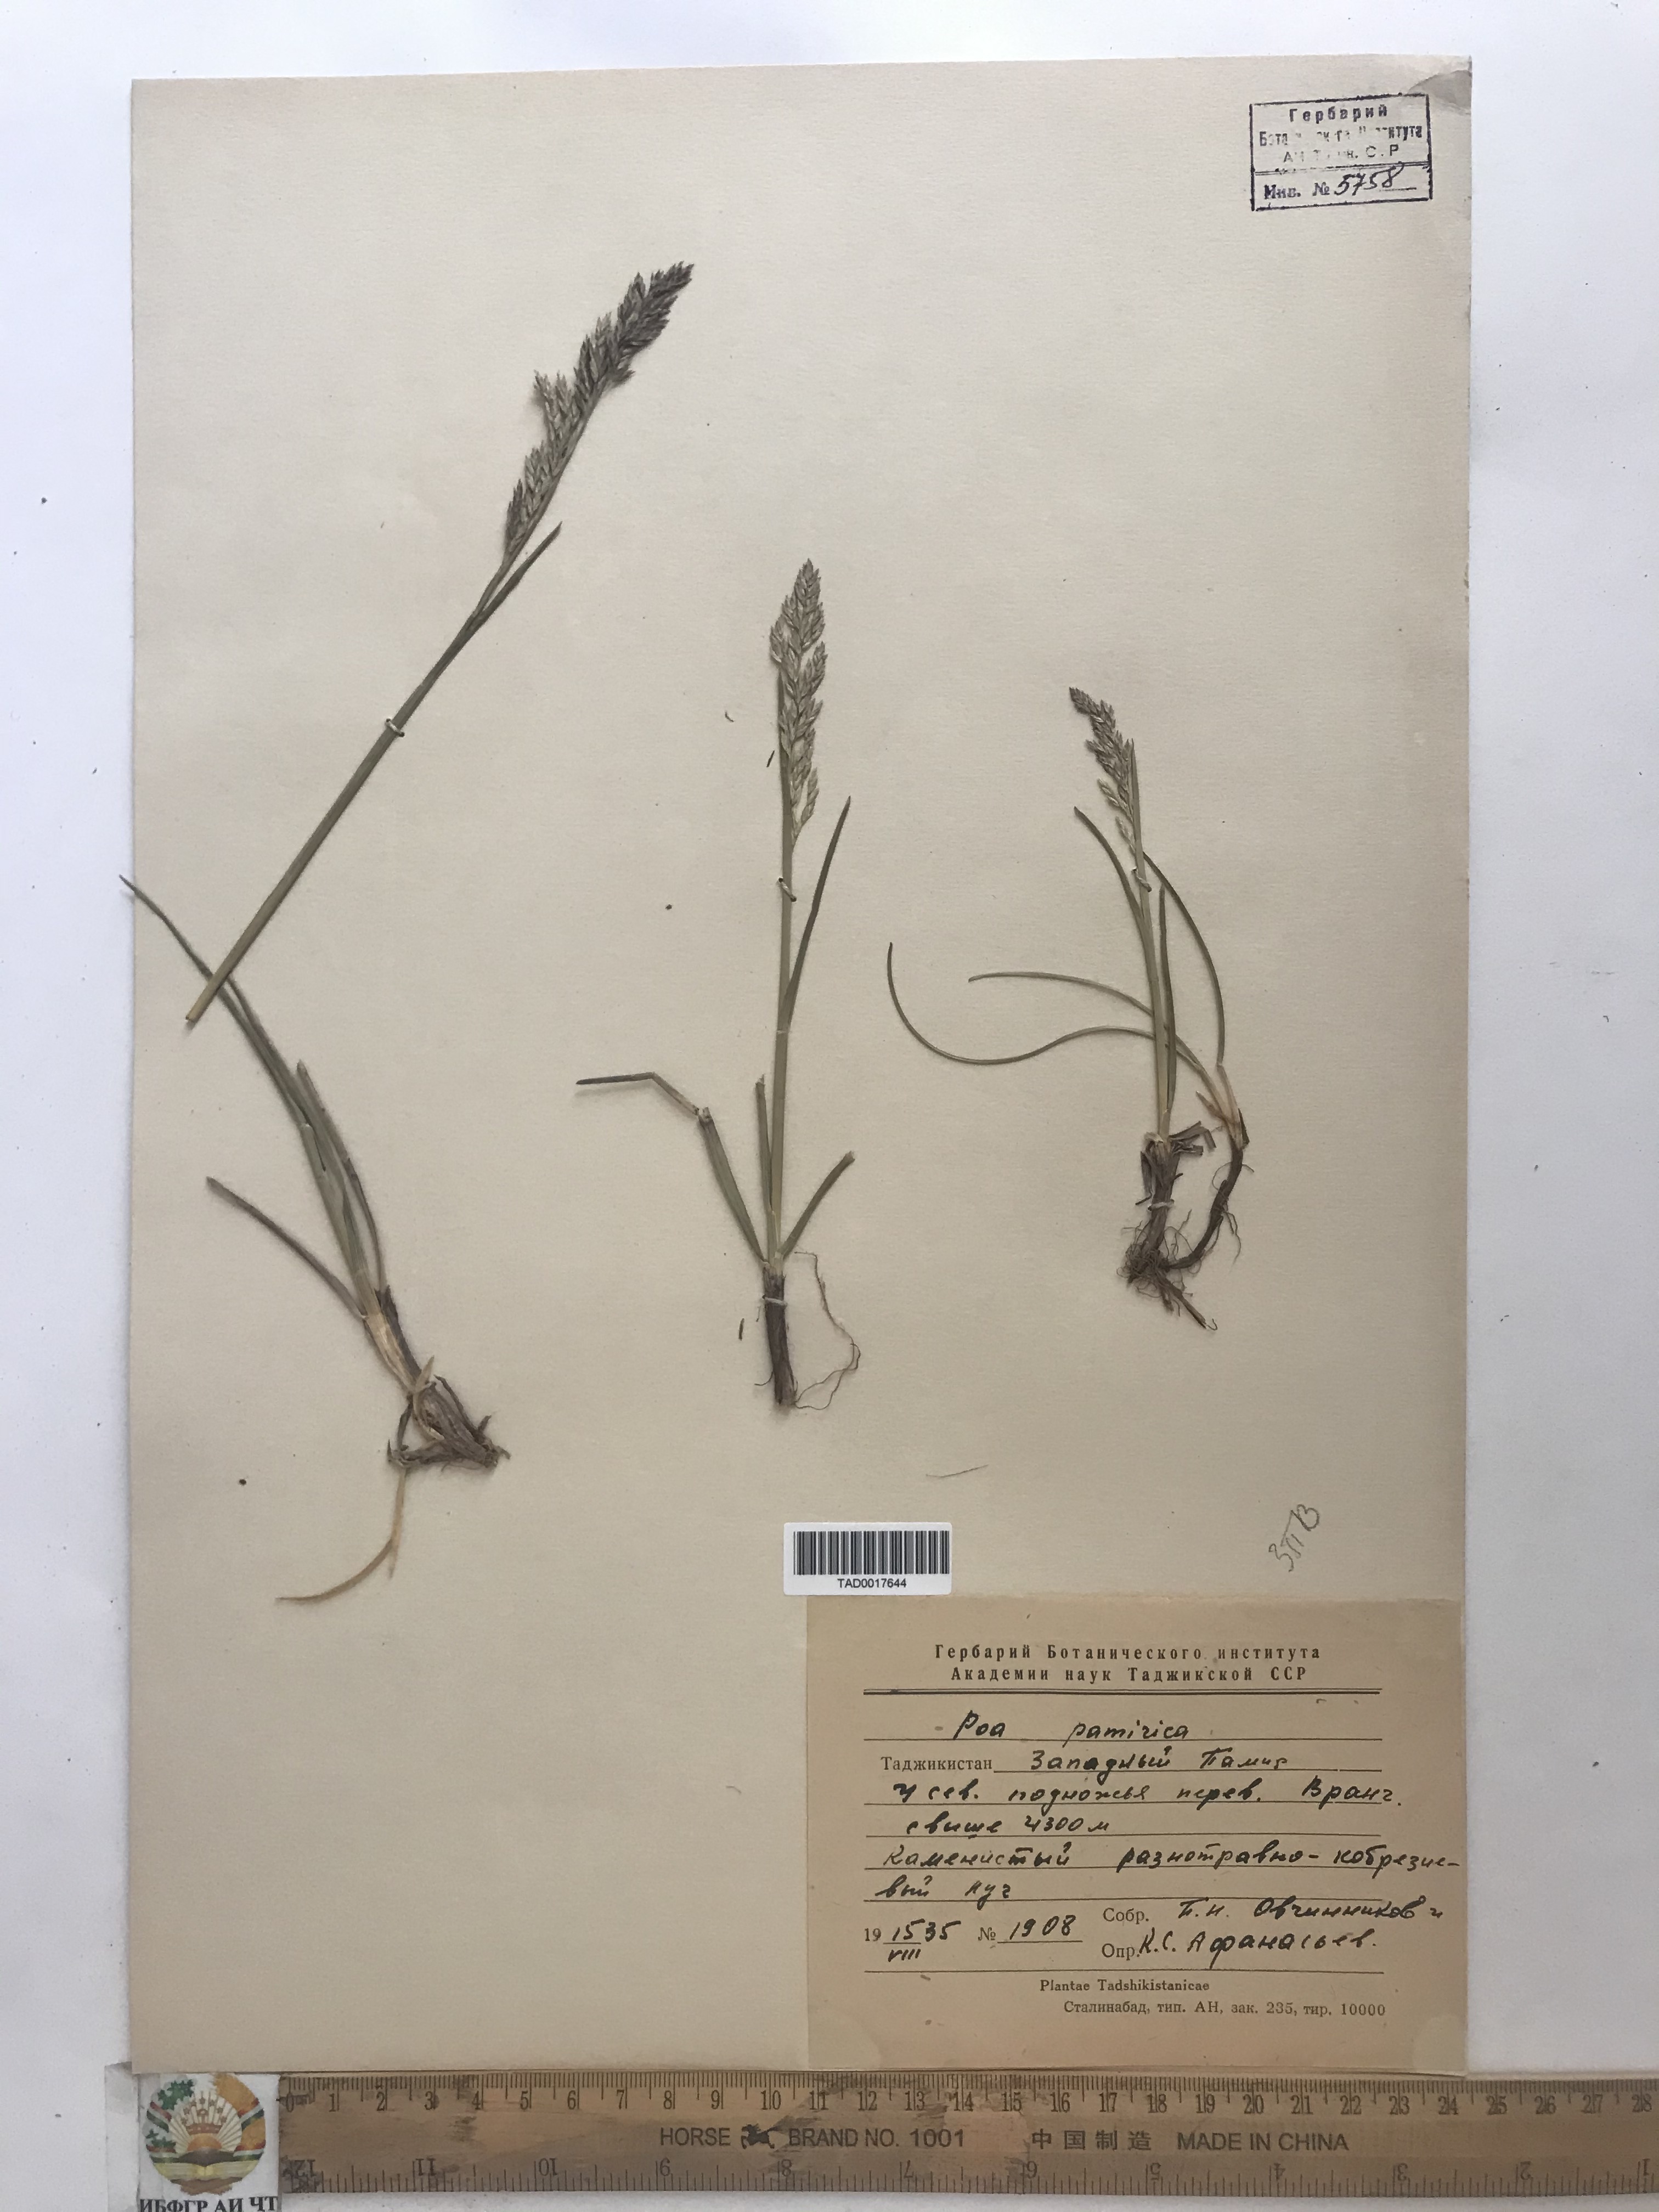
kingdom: Plantae
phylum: Tracheophyta
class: Liliopsida
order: Poales
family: Poaceae
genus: Poa
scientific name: Poa tianschanica
